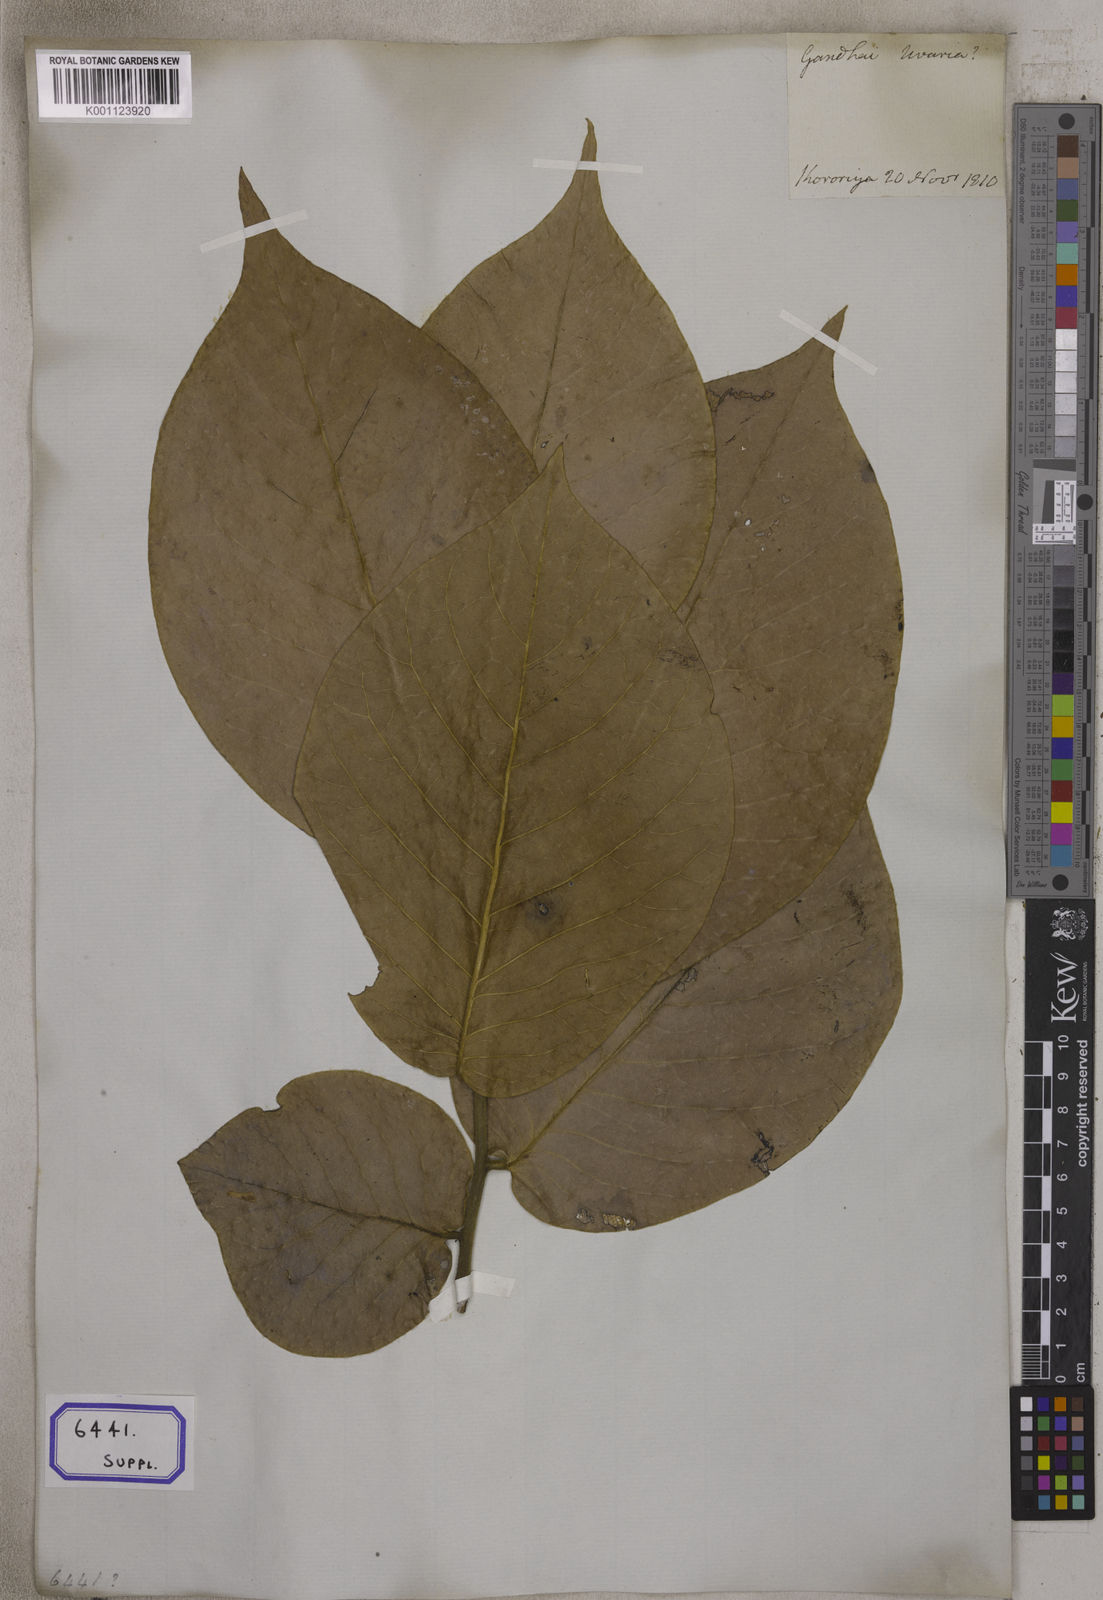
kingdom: Plantae
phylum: Tracheophyta
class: Magnoliopsida
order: Magnoliales
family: Annonaceae
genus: Miliusa
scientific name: Miliusa velutina
